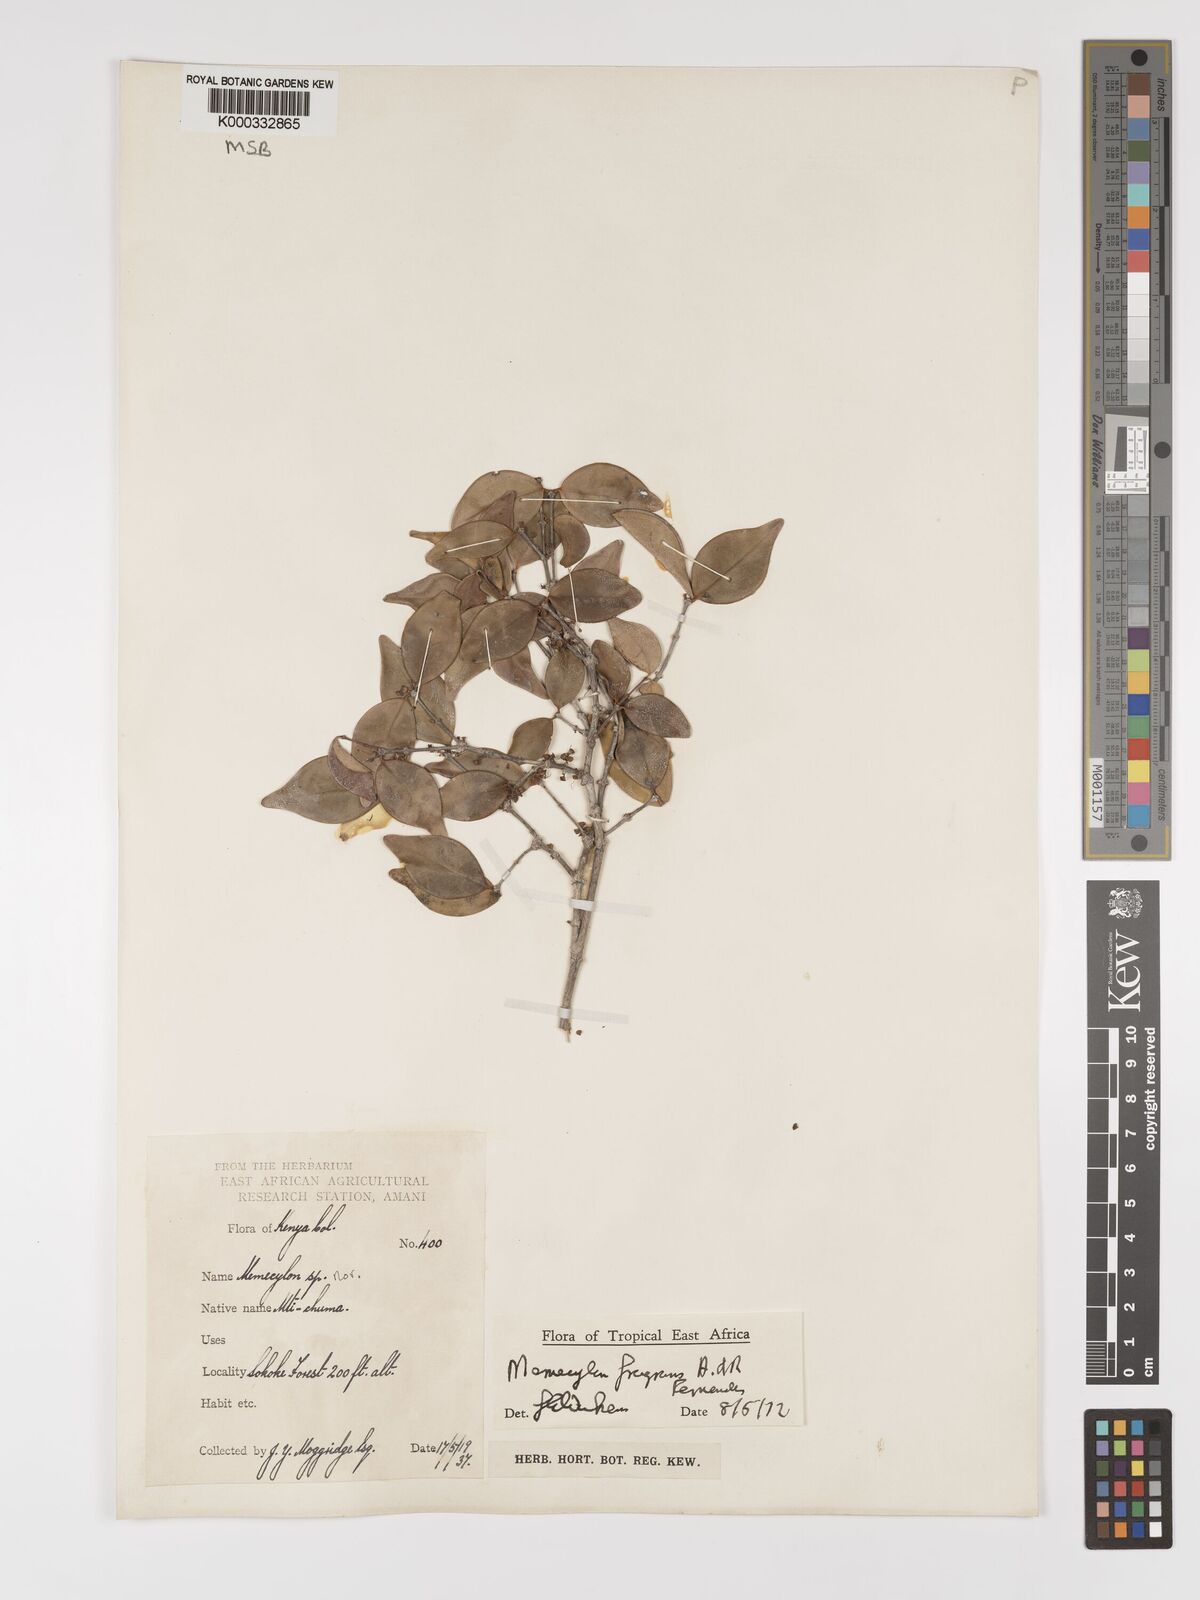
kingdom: Plantae
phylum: Tracheophyta
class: Magnoliopsida
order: Myrtales
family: Melastomataceae
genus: Memecylon
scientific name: Memecylon fragrans
